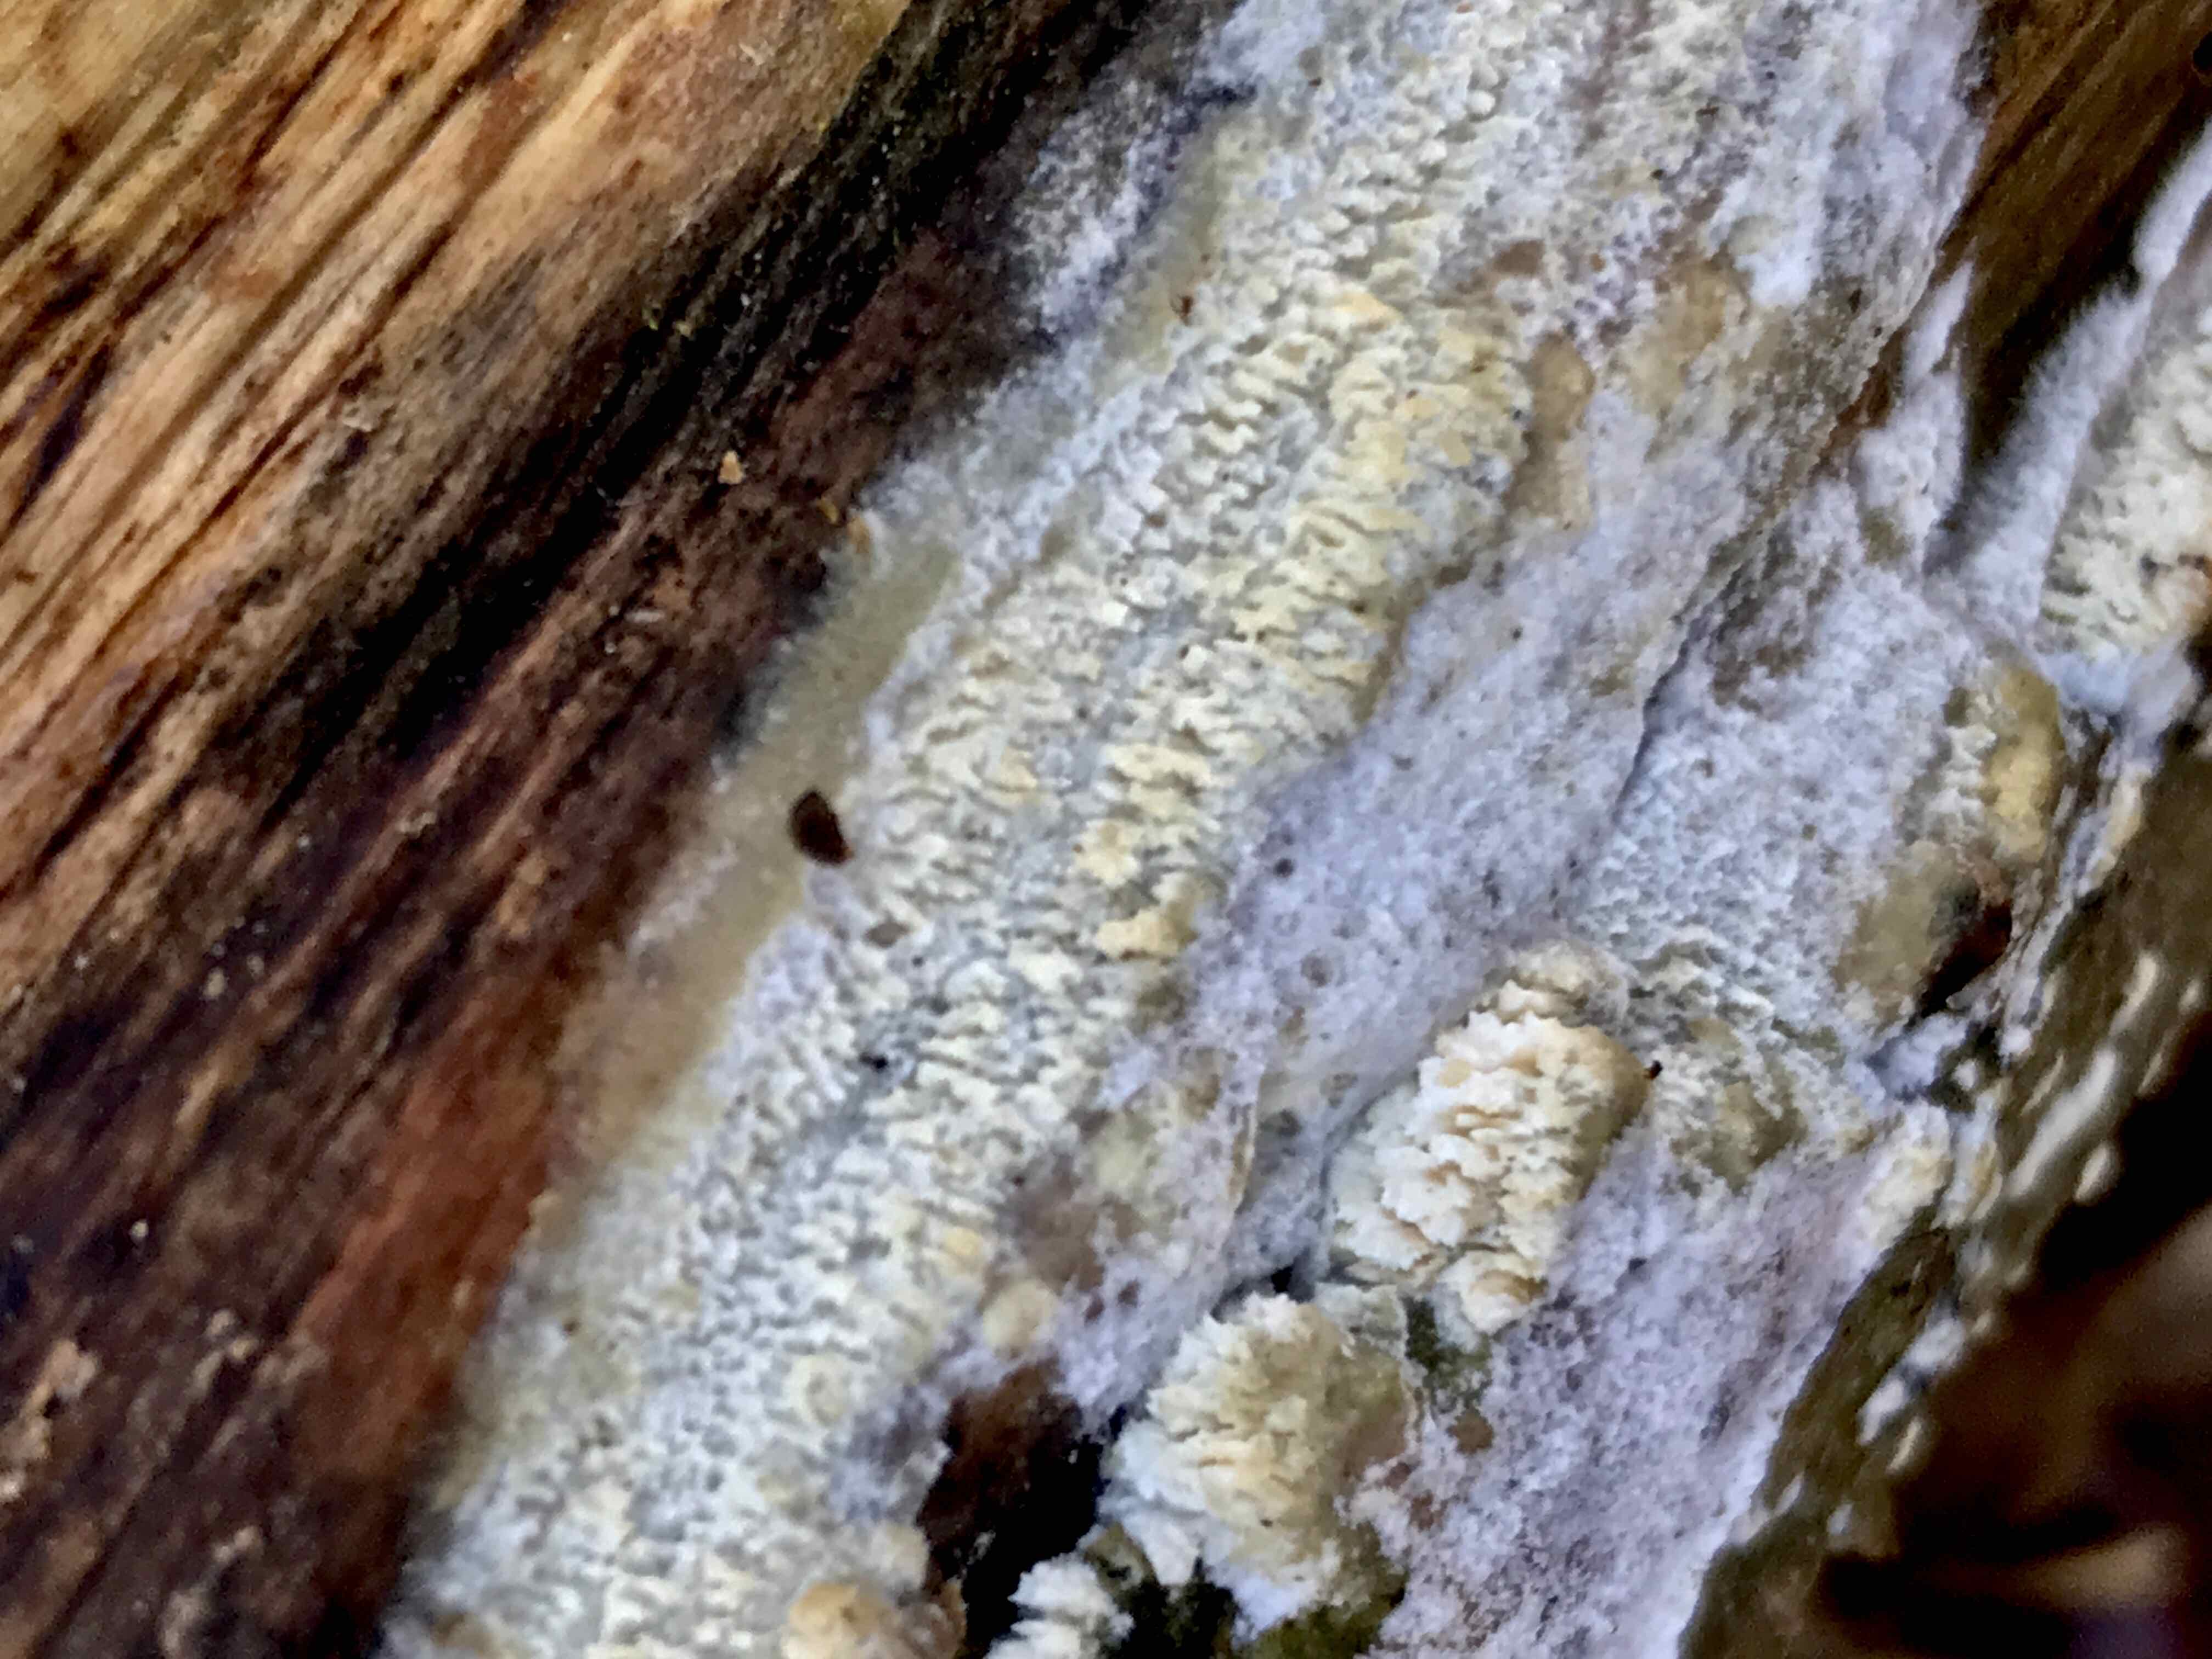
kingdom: Fungi
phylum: Basidiomycota
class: Agaricomycetes
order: Corticiales
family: Corticiaceae
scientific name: Corticiaceae
